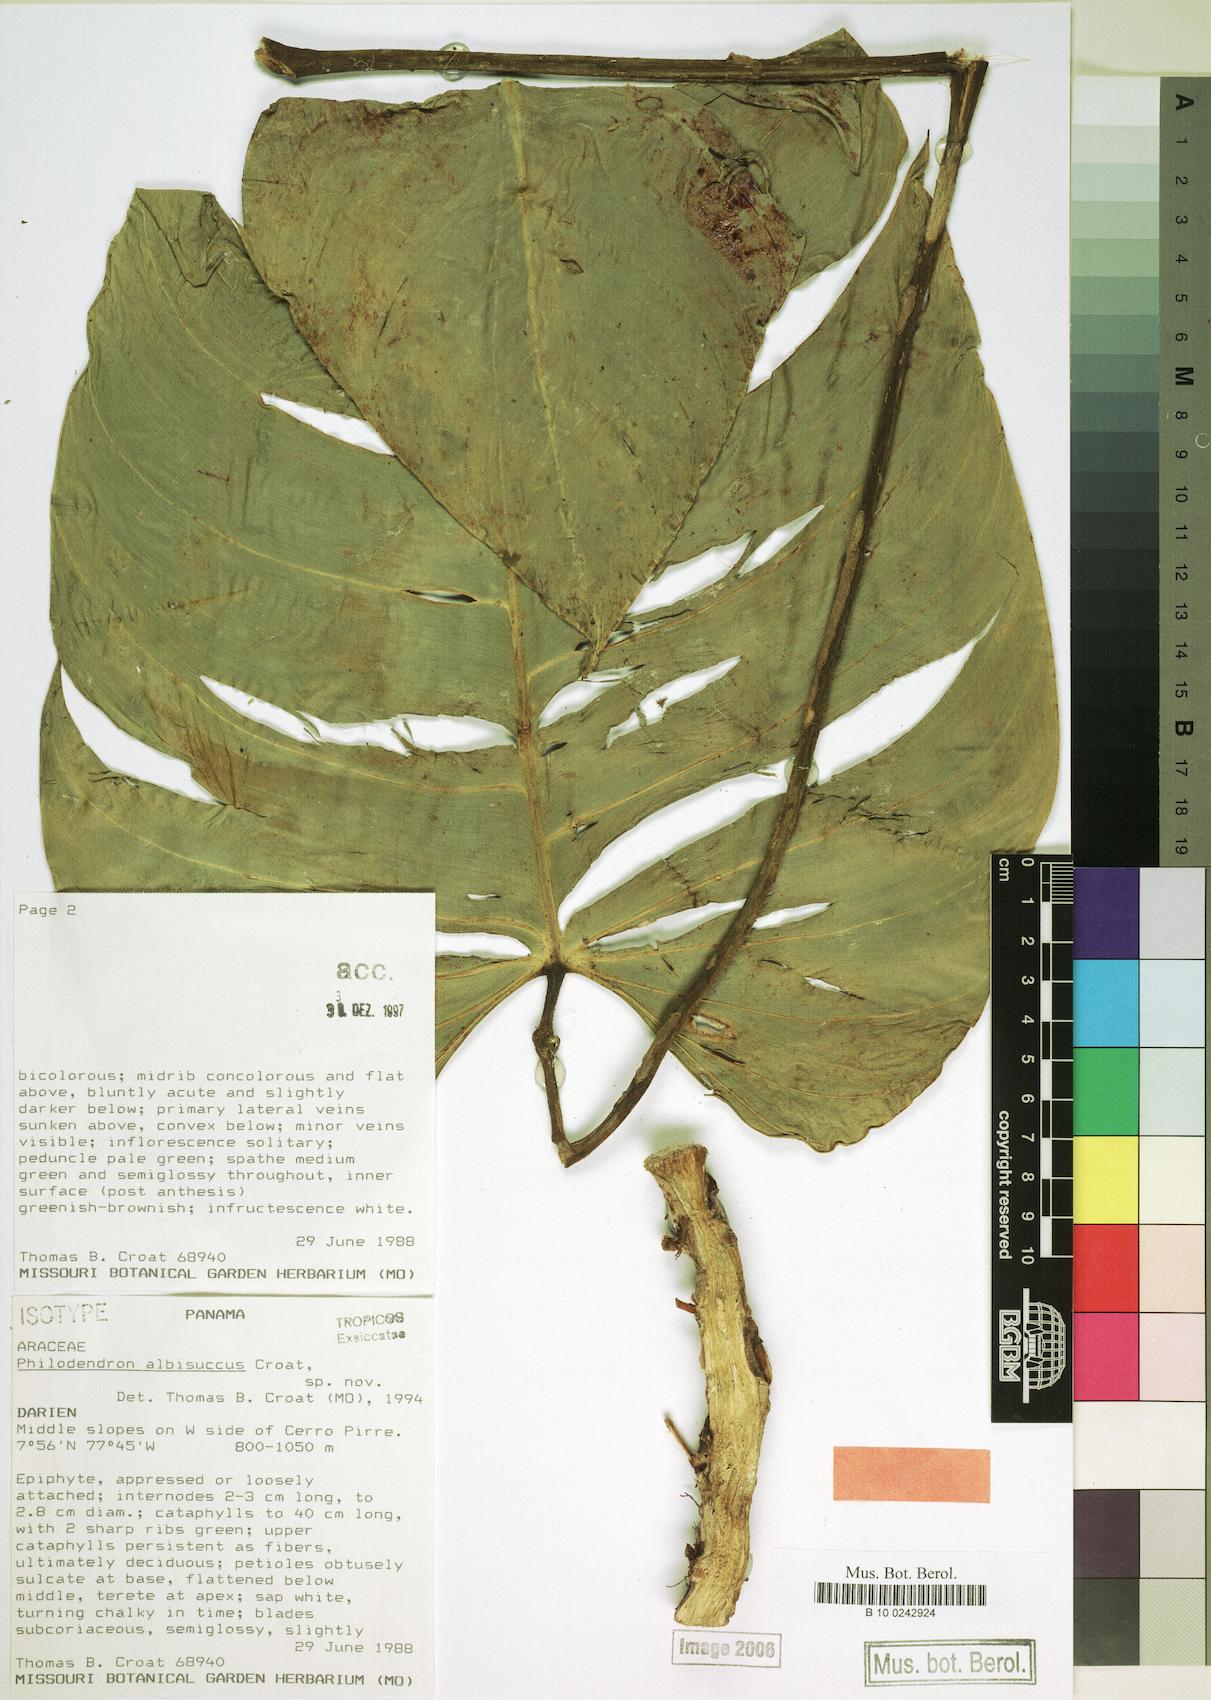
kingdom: Plantae
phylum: Tracheophyta
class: Liliopsida
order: Alismatales
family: Araceae
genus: Philodendron
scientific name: Philodendron albisuccus
